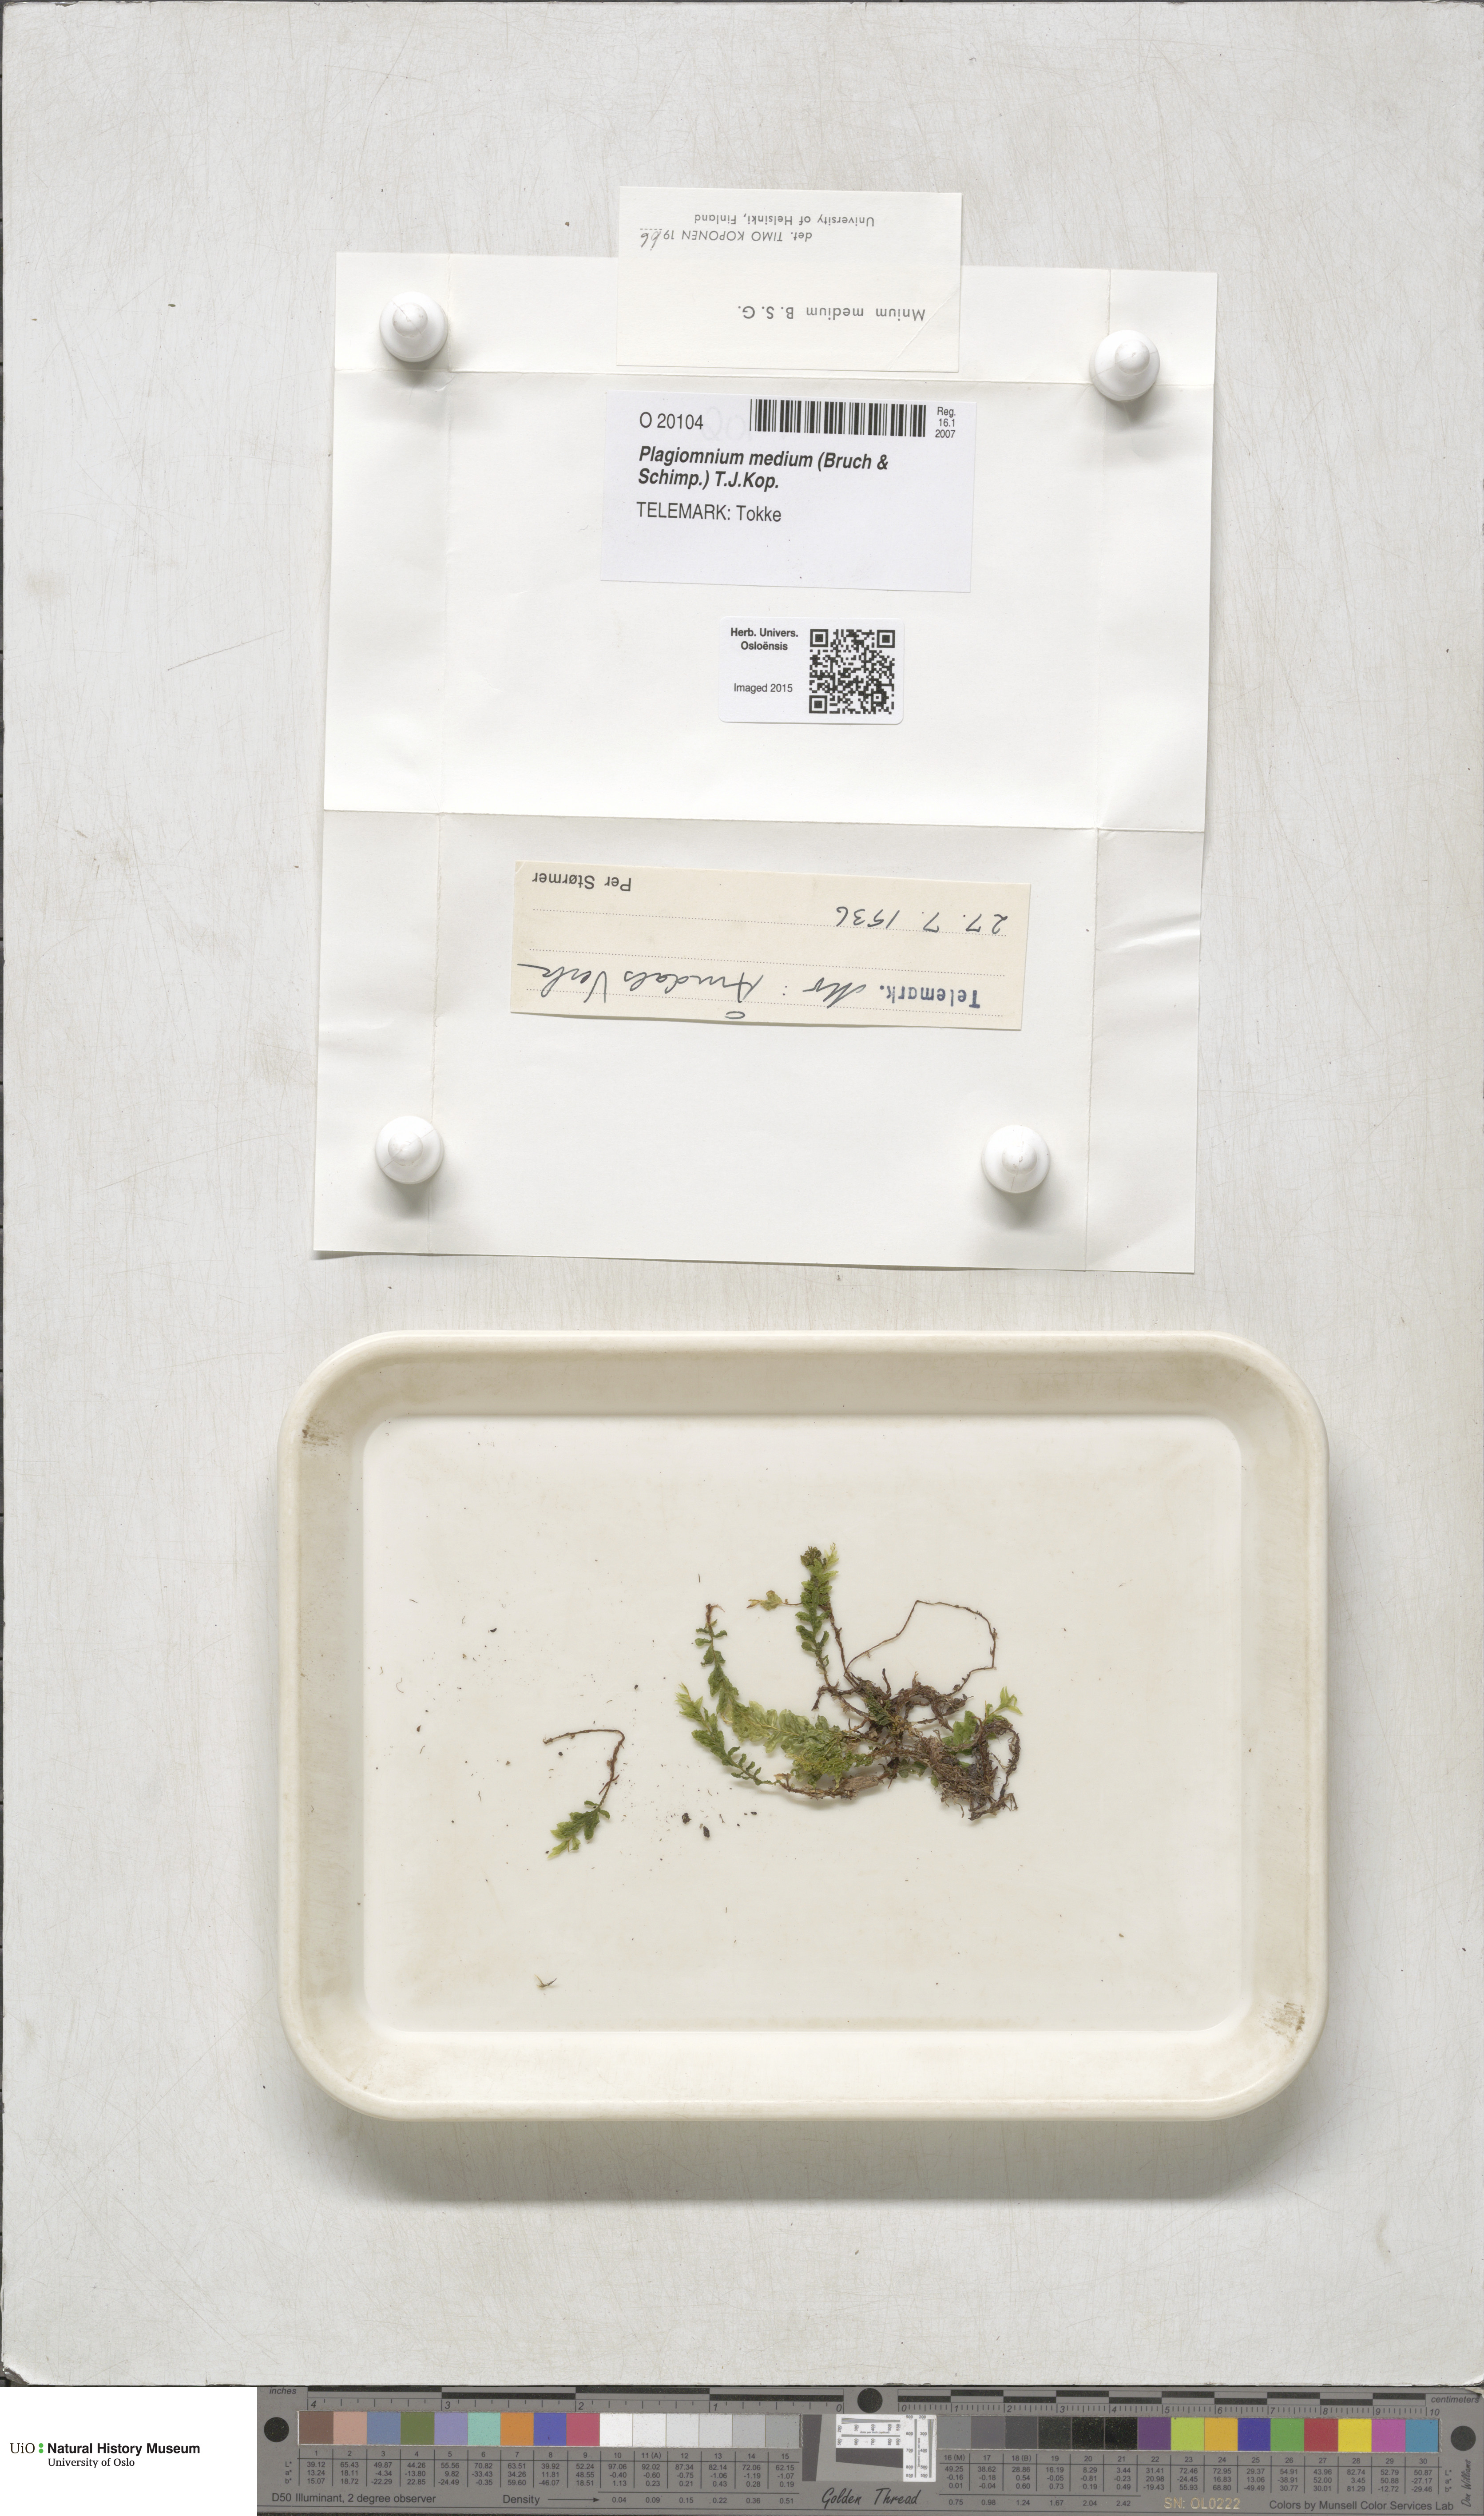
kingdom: Plantae
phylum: Bryophyta
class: Bryopsida
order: Bryales
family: Mniaceae
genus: Plagiomnium
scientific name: Plagiomnium medium
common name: Alpine leafy moss
